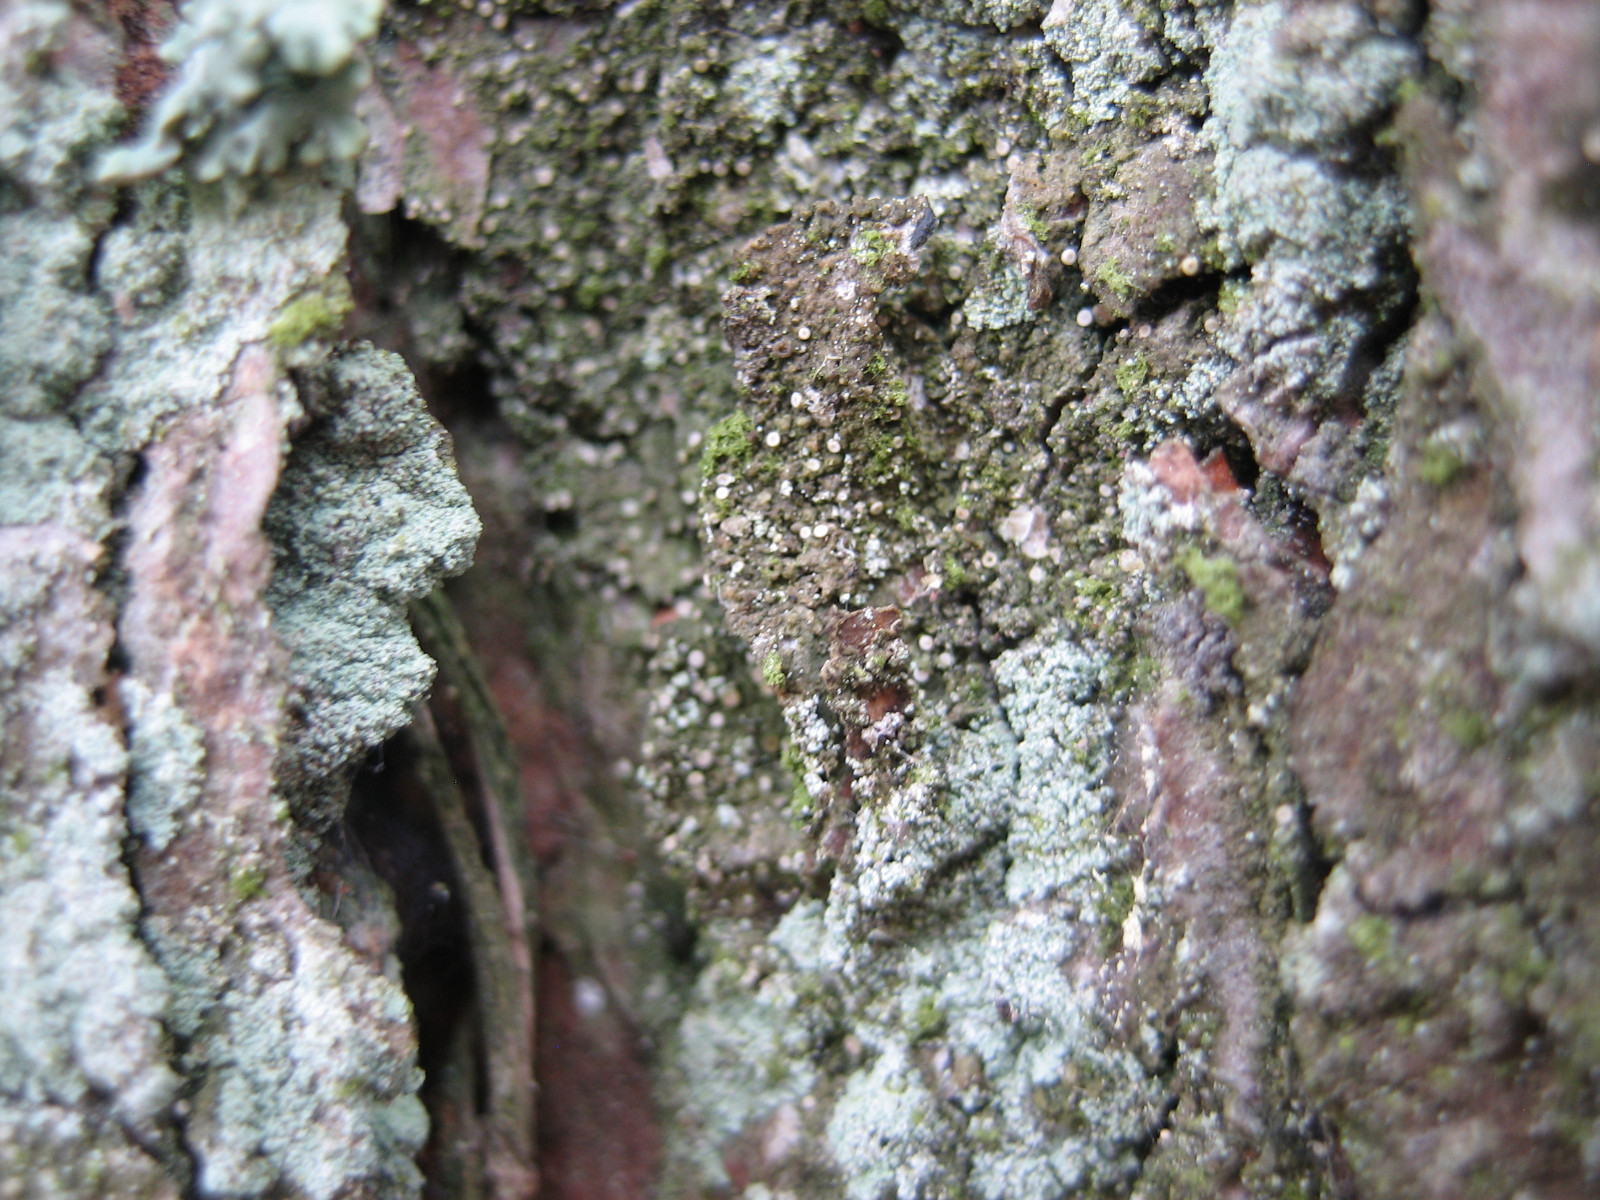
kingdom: Fungi
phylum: Ascomycota
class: Lecanoromycetes
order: Ostropales
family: Coenogoniaceae
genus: Coenogonium
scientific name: Coenogonium pineti
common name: liden vokslav
